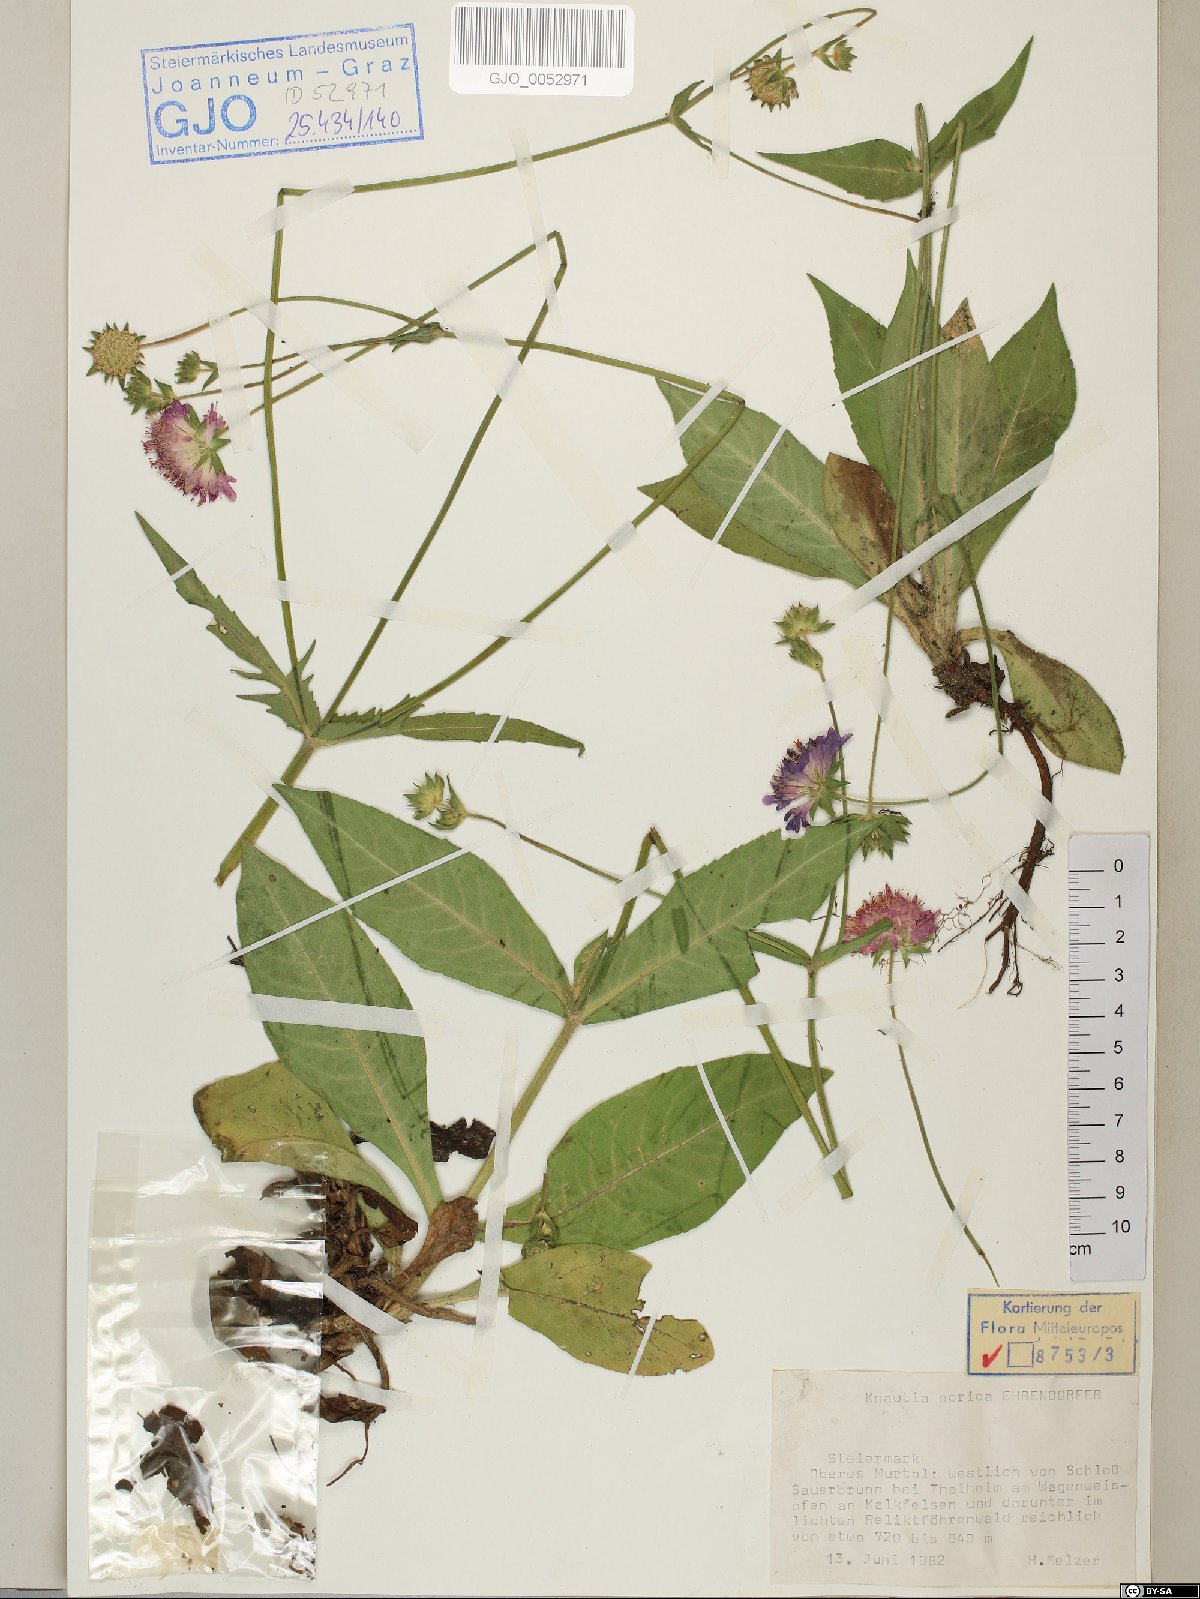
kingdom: Plantae
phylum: Tracheophyta
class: Magnoliopsida
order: Dipsacales
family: Caprifoliaceae
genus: Knautia
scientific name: Knautia norica
